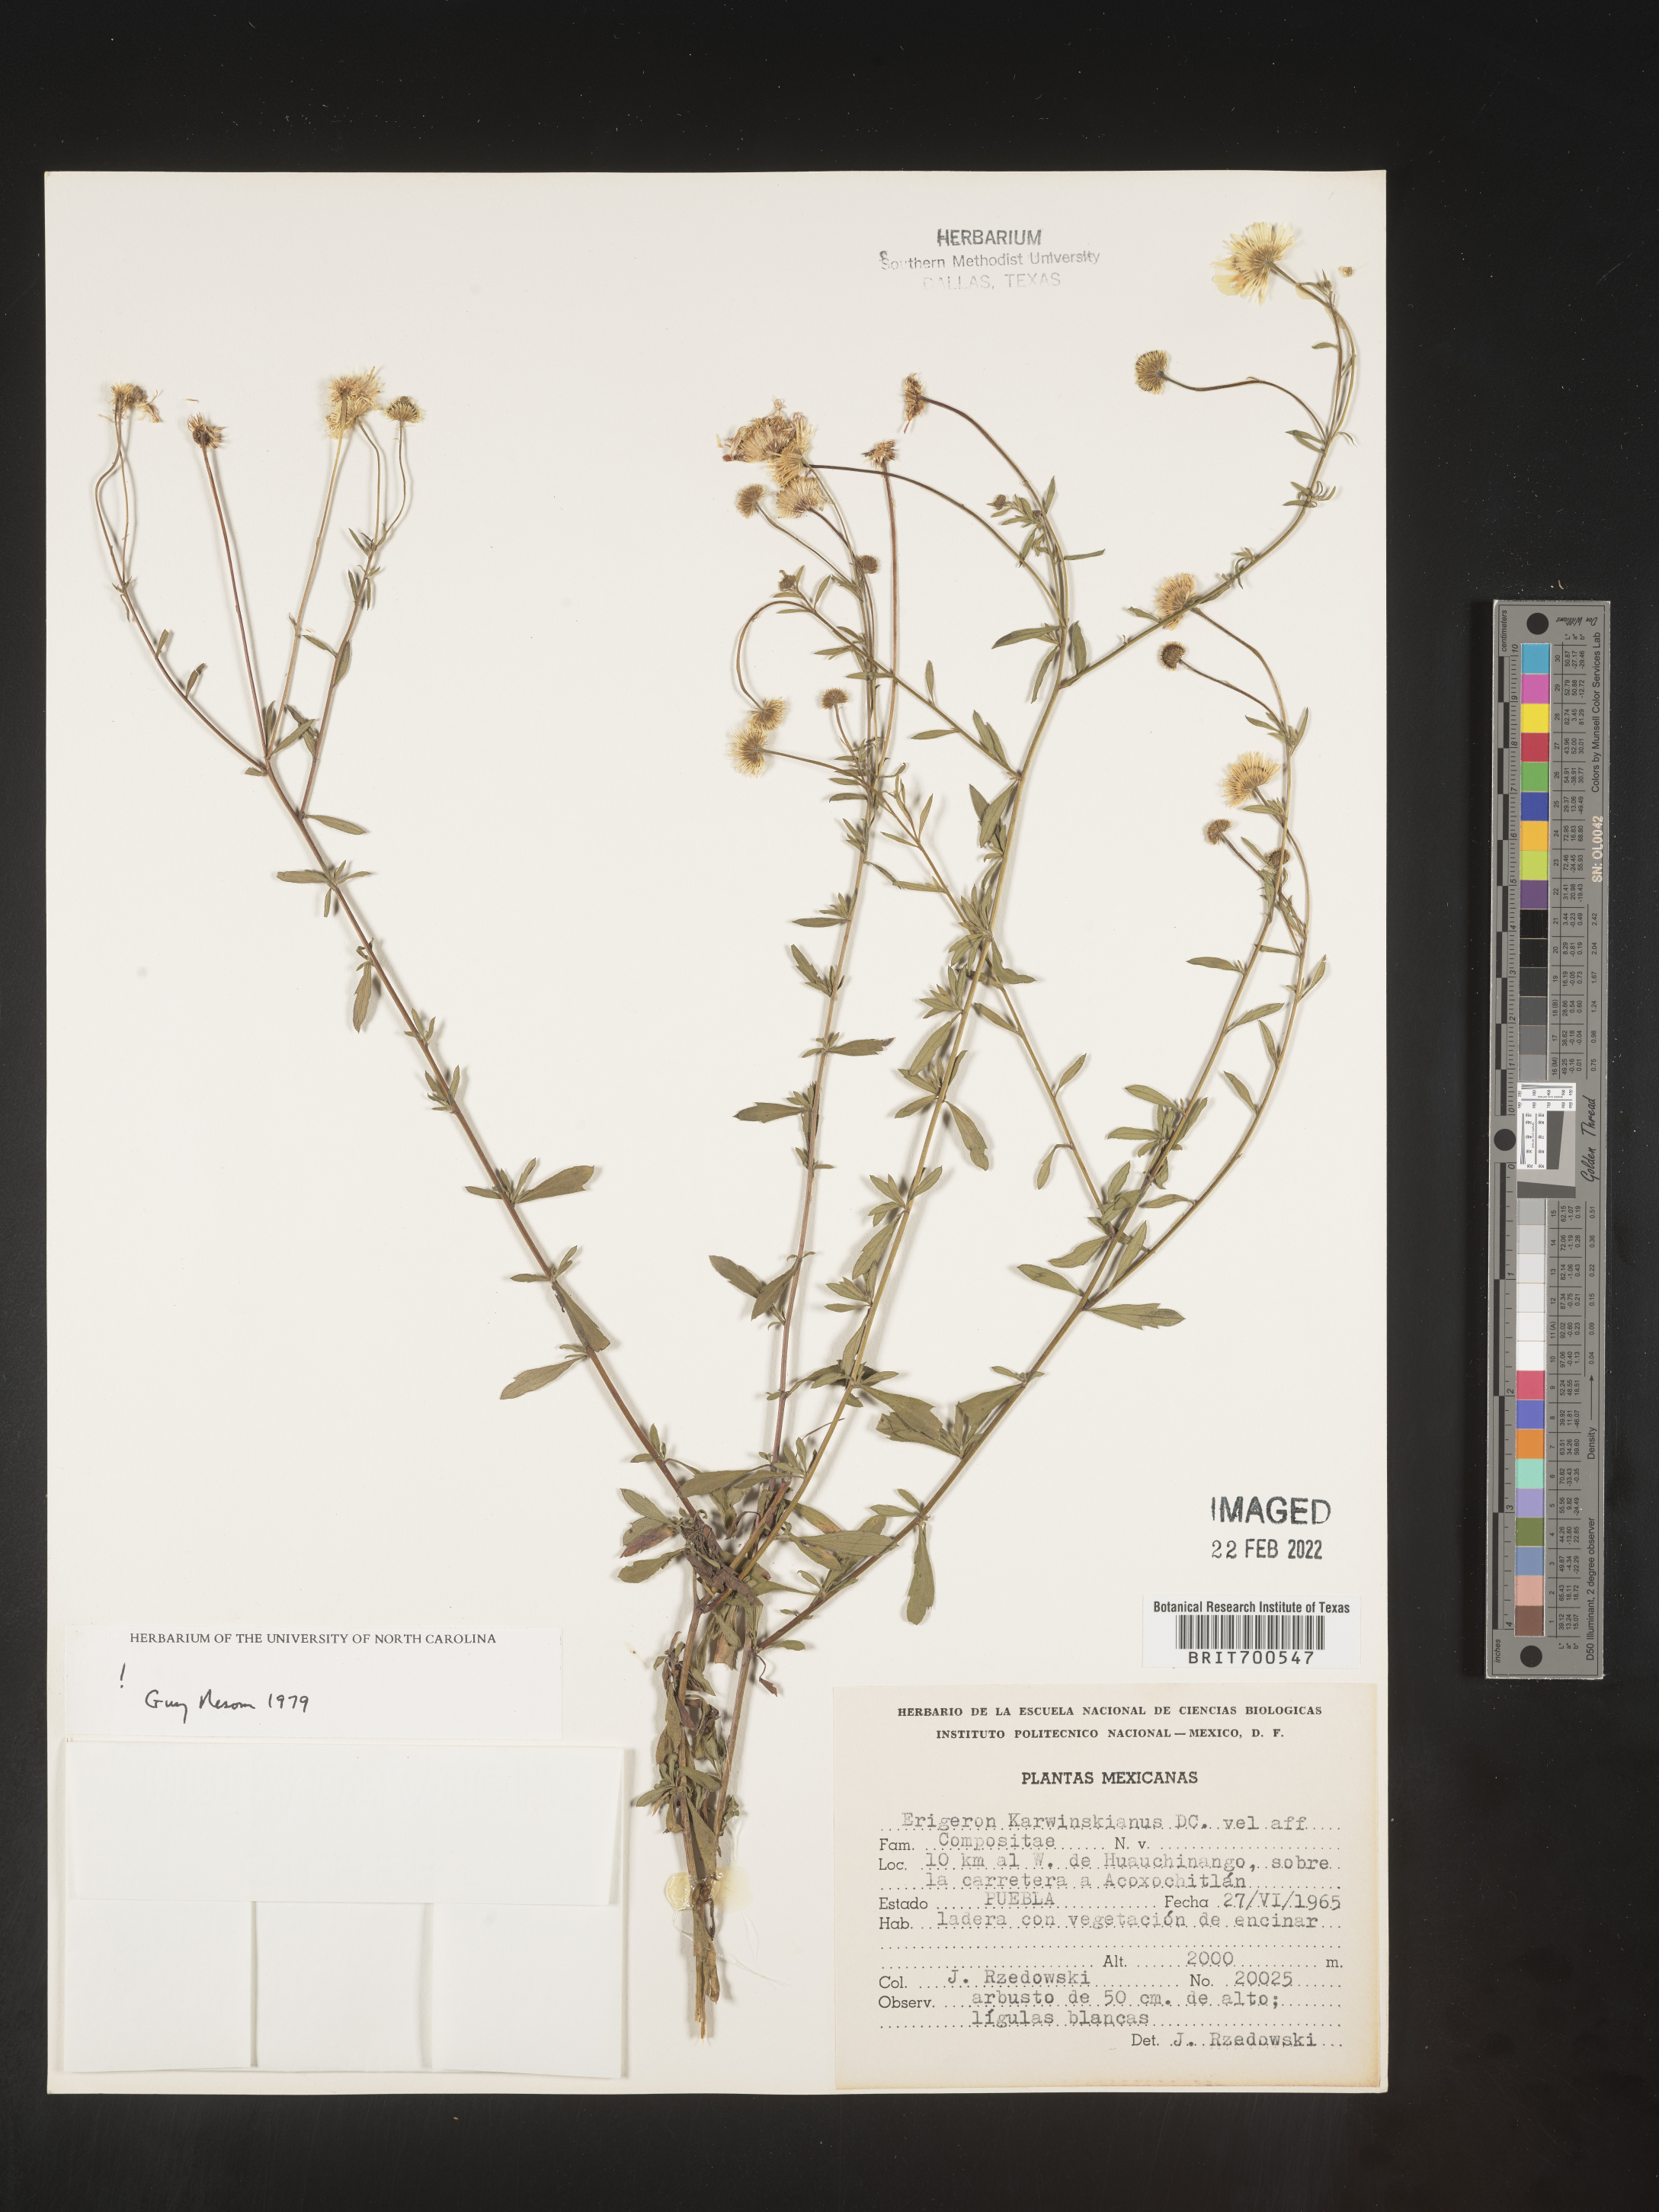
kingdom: Plantae
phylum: Tracheophyta
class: Magnoliopsida
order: Asterales
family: Asteraceae
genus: Erigeron
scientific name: Erigeron karvinskianus
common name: Mexican fleabane
